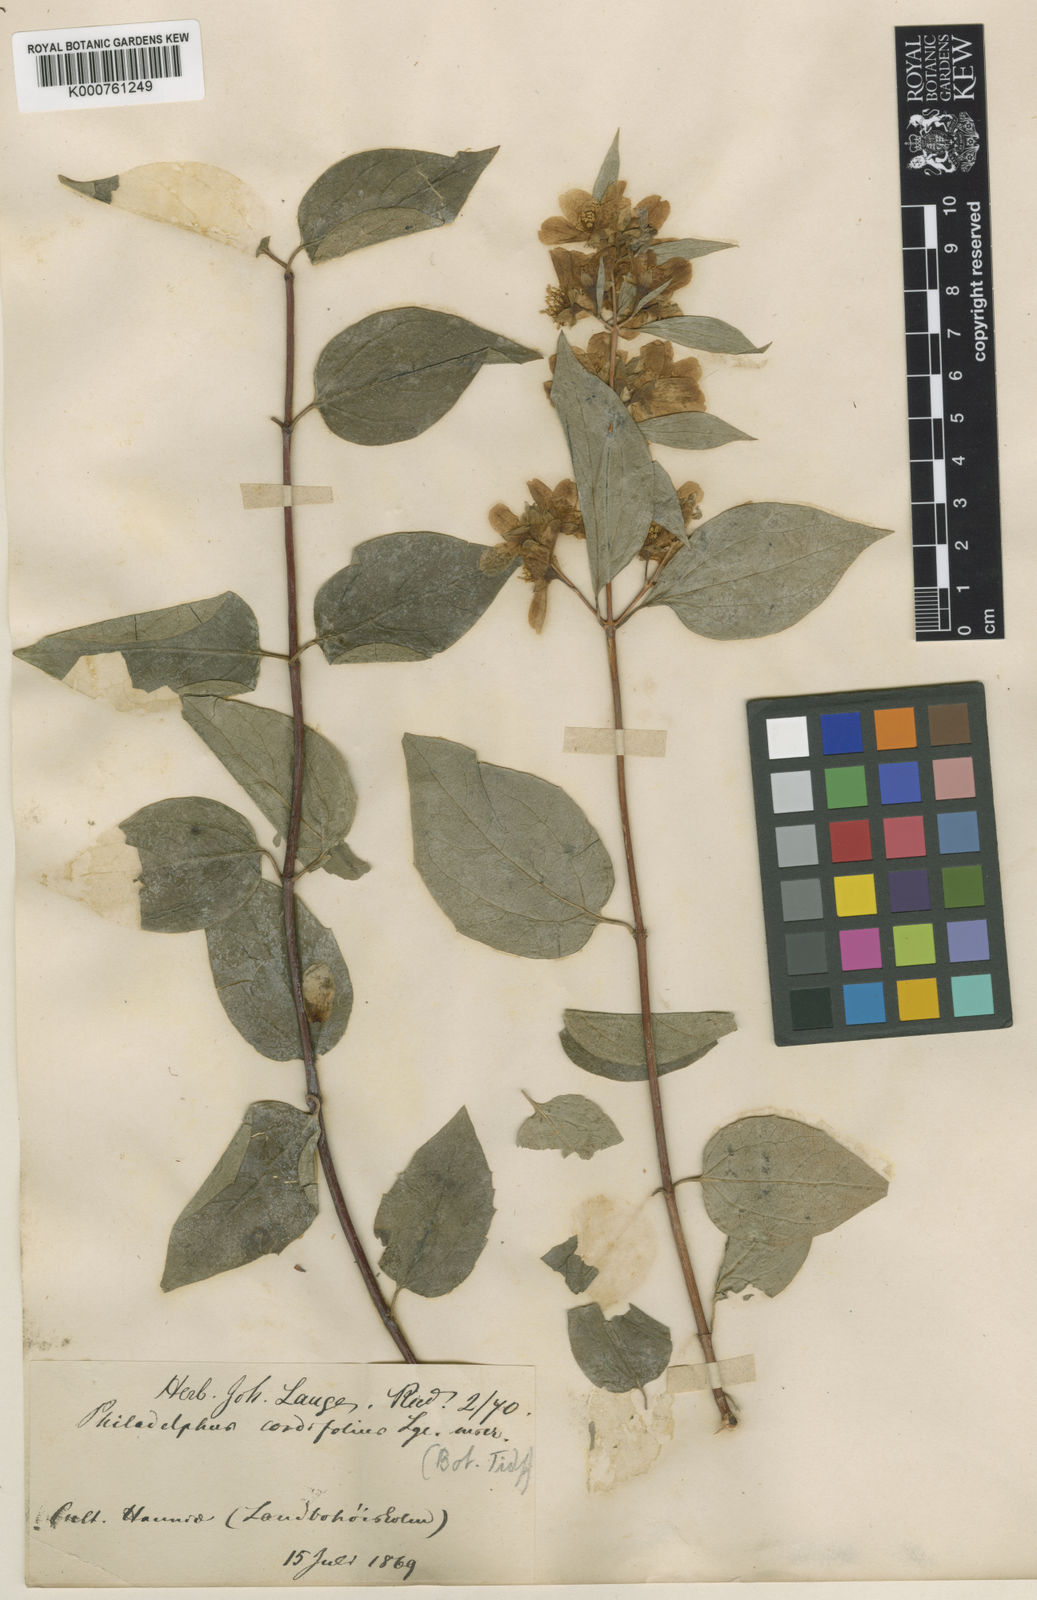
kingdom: Plantae
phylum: Tracheophyta
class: Magnoliopsida
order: Cornales
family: Hydrangeaceae
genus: Philadelphus
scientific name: Philadelphus lewisii
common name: Lewis's mock orange
